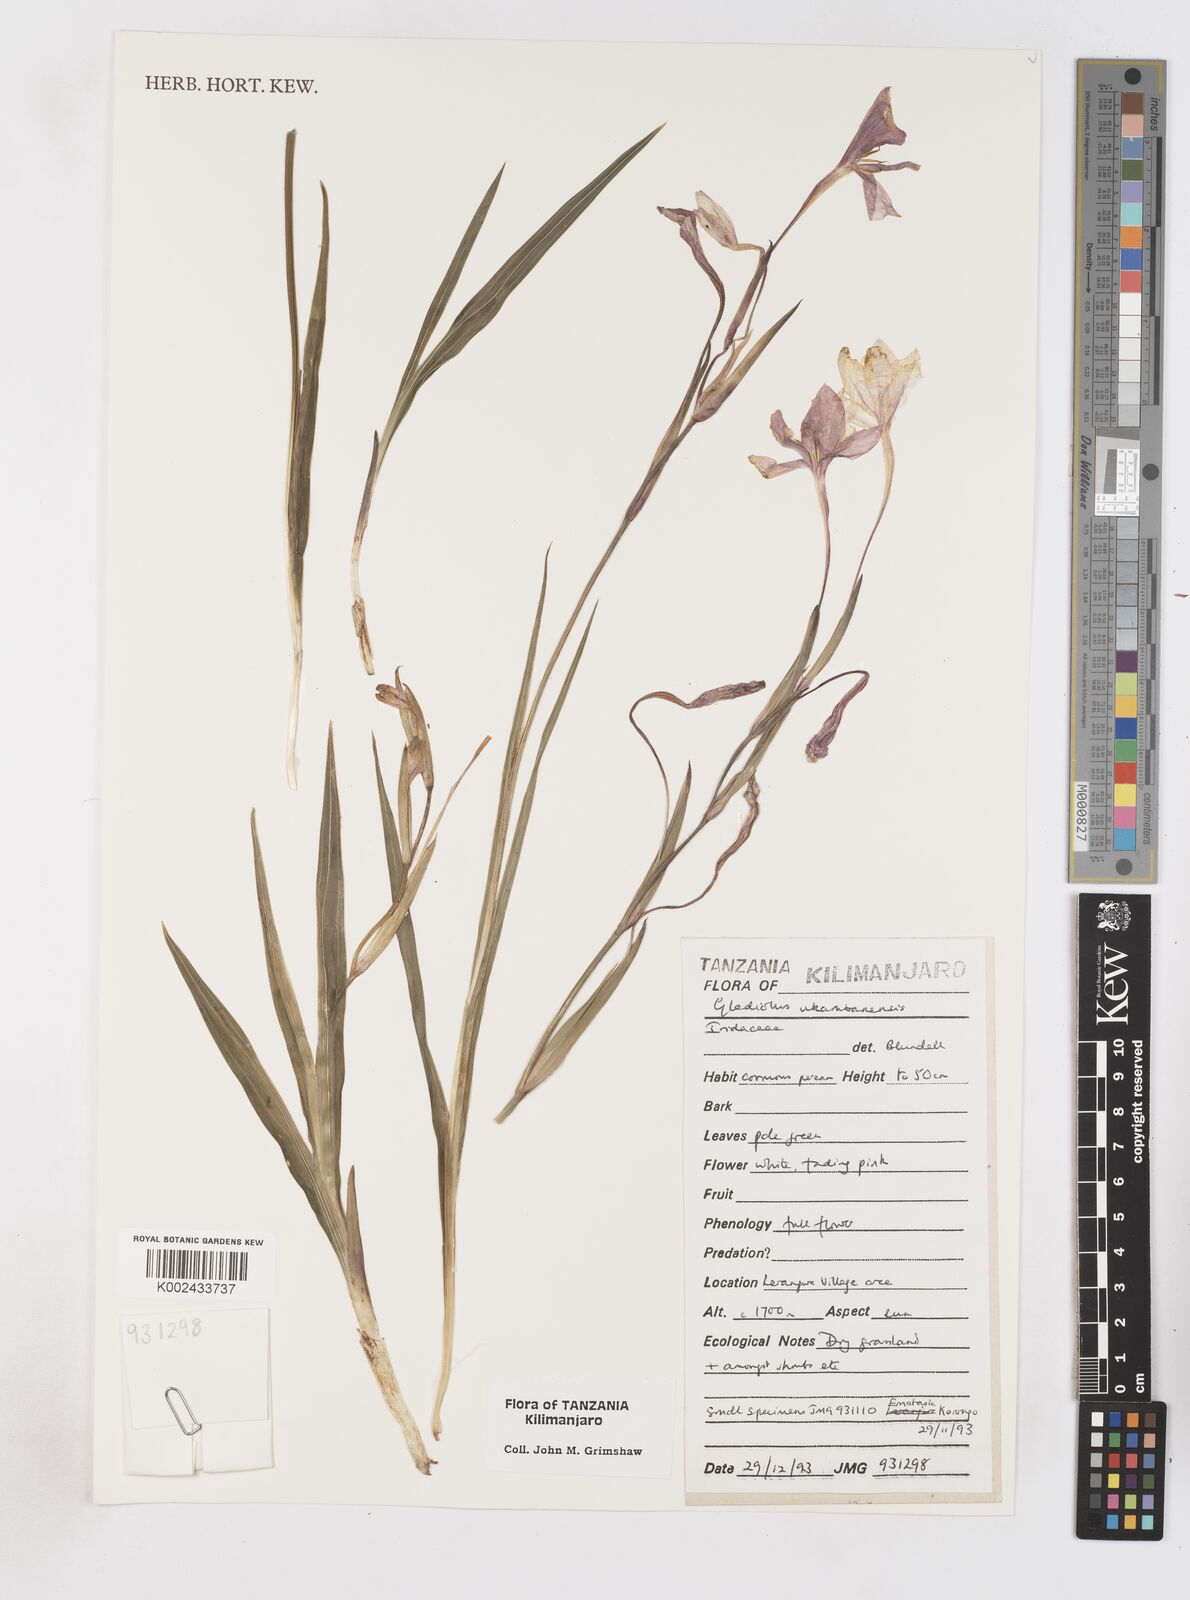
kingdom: Plantae
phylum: Tracheophyta
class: Liliopsida
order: Asparagales
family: Iridaceae
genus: Gladiolus
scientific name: Gladiolus candidus
